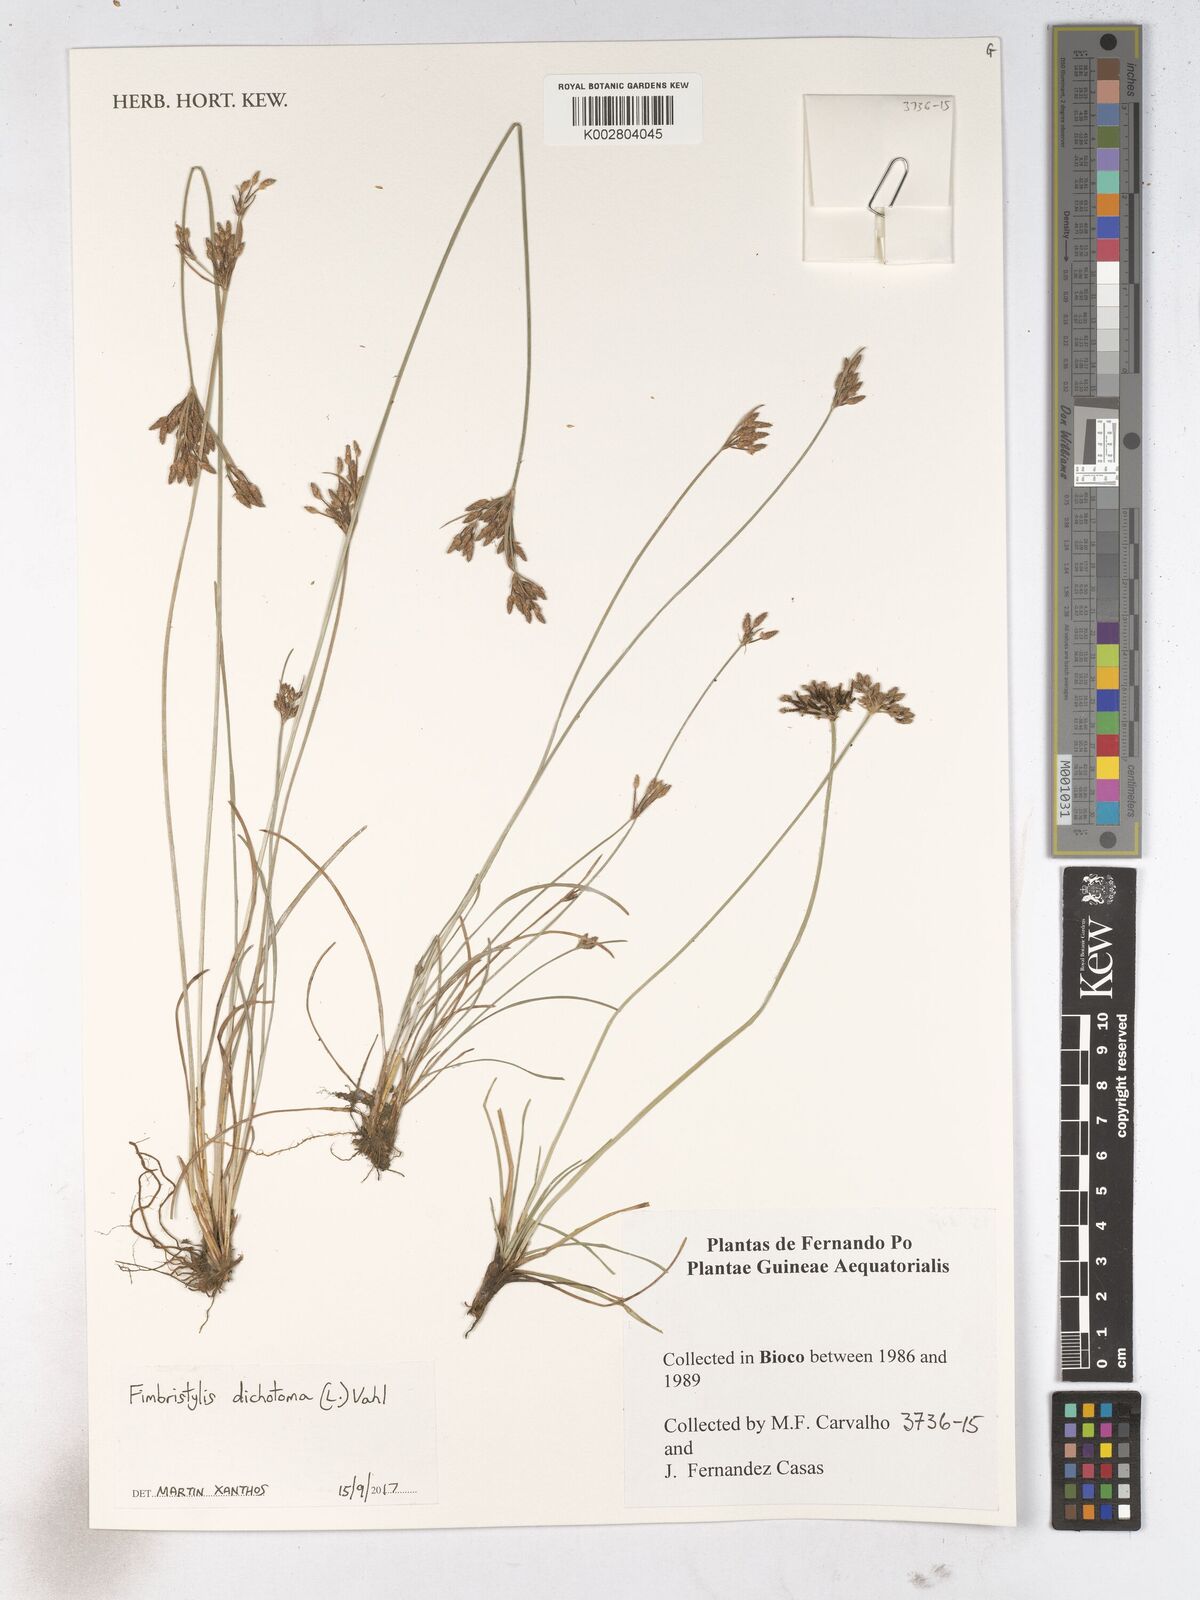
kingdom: Plantae
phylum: Tracheophyta
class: Liliopsida
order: Poales
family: Cyperaceae
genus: Fimbristylis
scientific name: Fimbristylis dichotoma
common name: Forked fimbry
